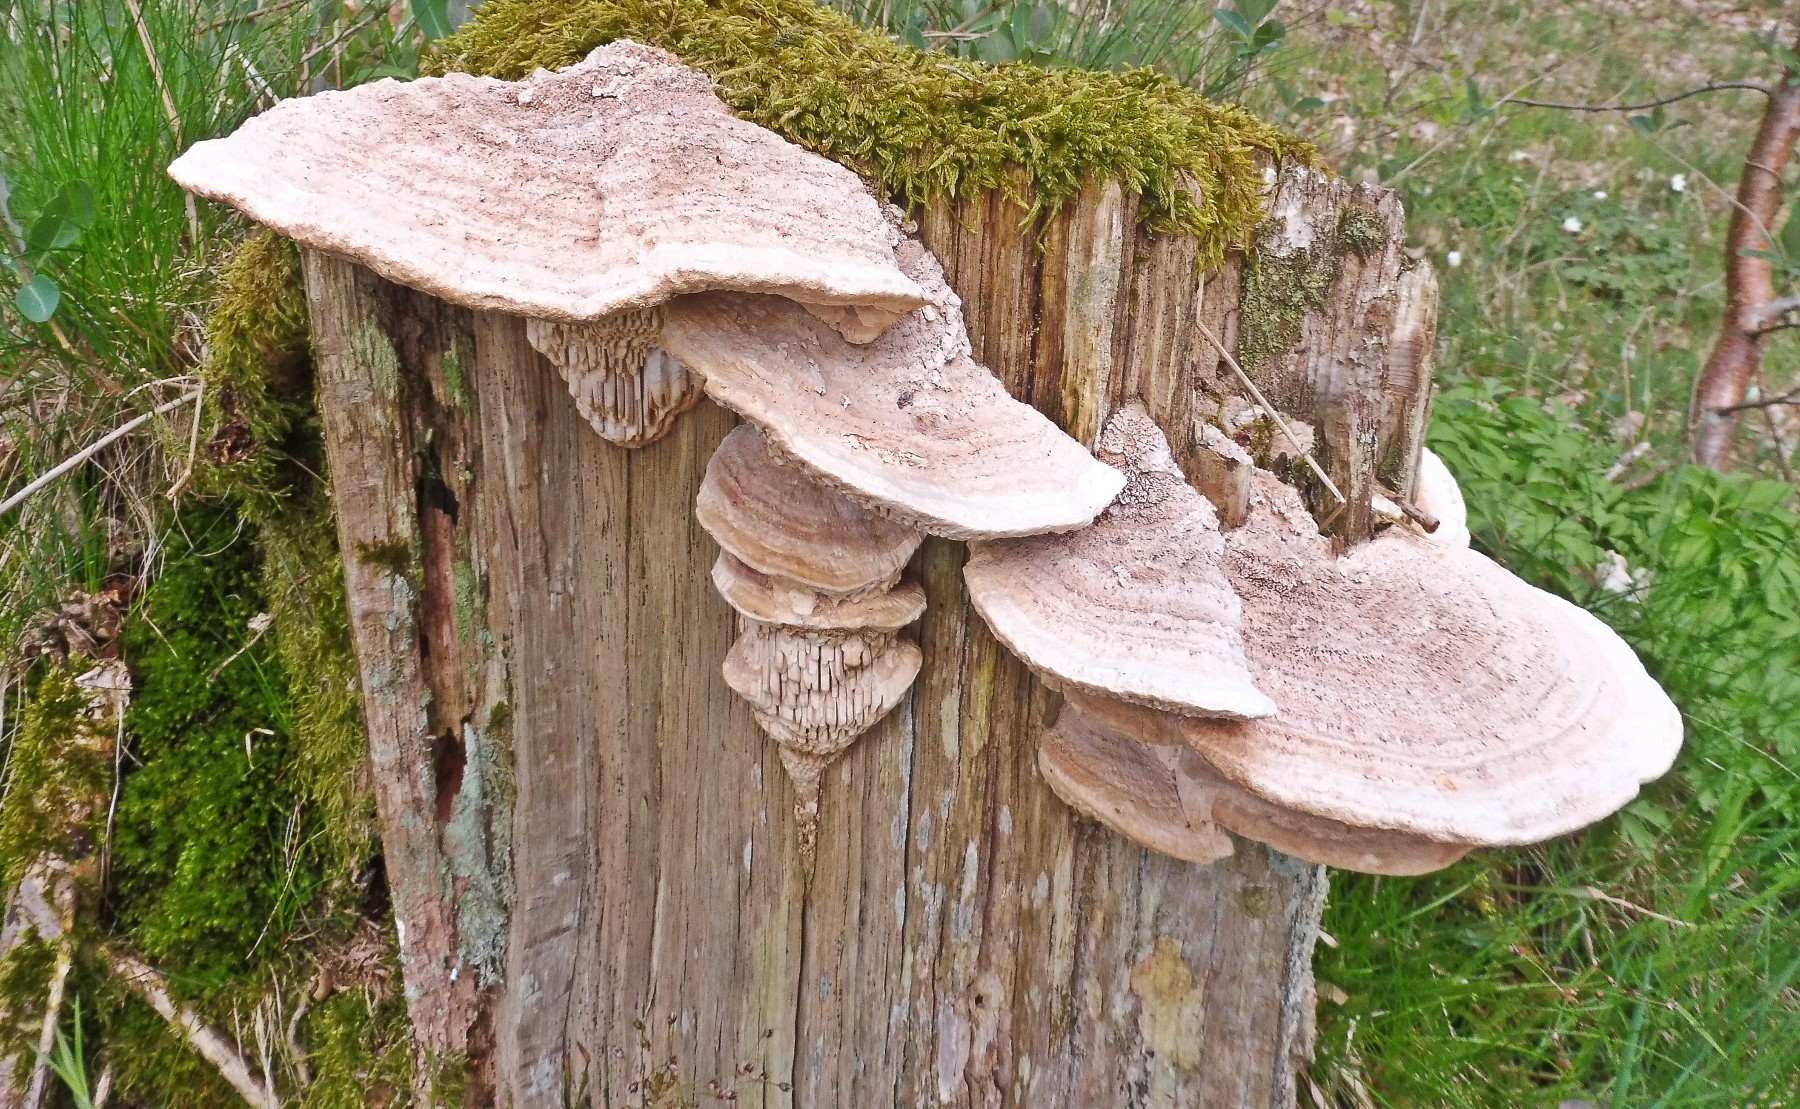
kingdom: Fungi
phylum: Basidiomycota
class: Agaricomycetes
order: Polyporales
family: Fomitopsidaceae
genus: Daedalea
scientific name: Daedalea quercina
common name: ege-labyrintsvamp
